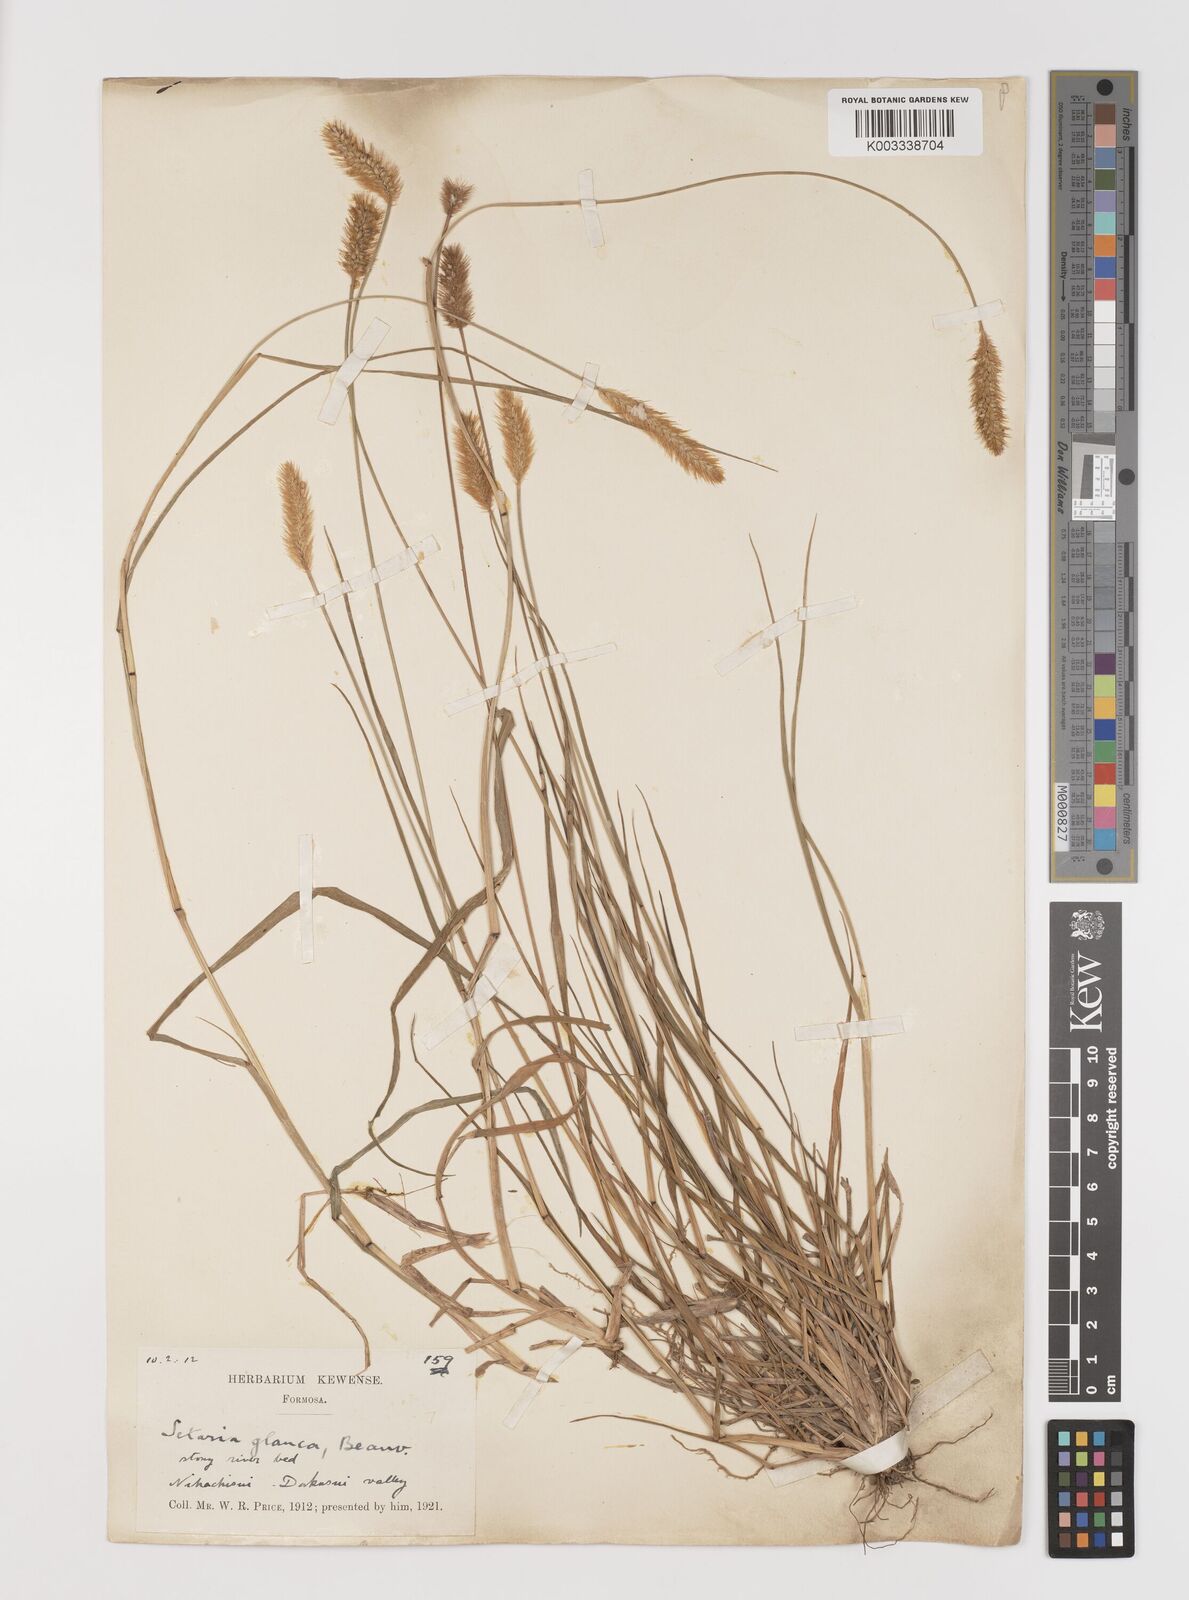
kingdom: Plantae
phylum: Tracheophyta
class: Liliopsida
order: Poales
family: Poaceae
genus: Setaria
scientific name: Setaria parviflora
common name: Knotroot bristle-grass
